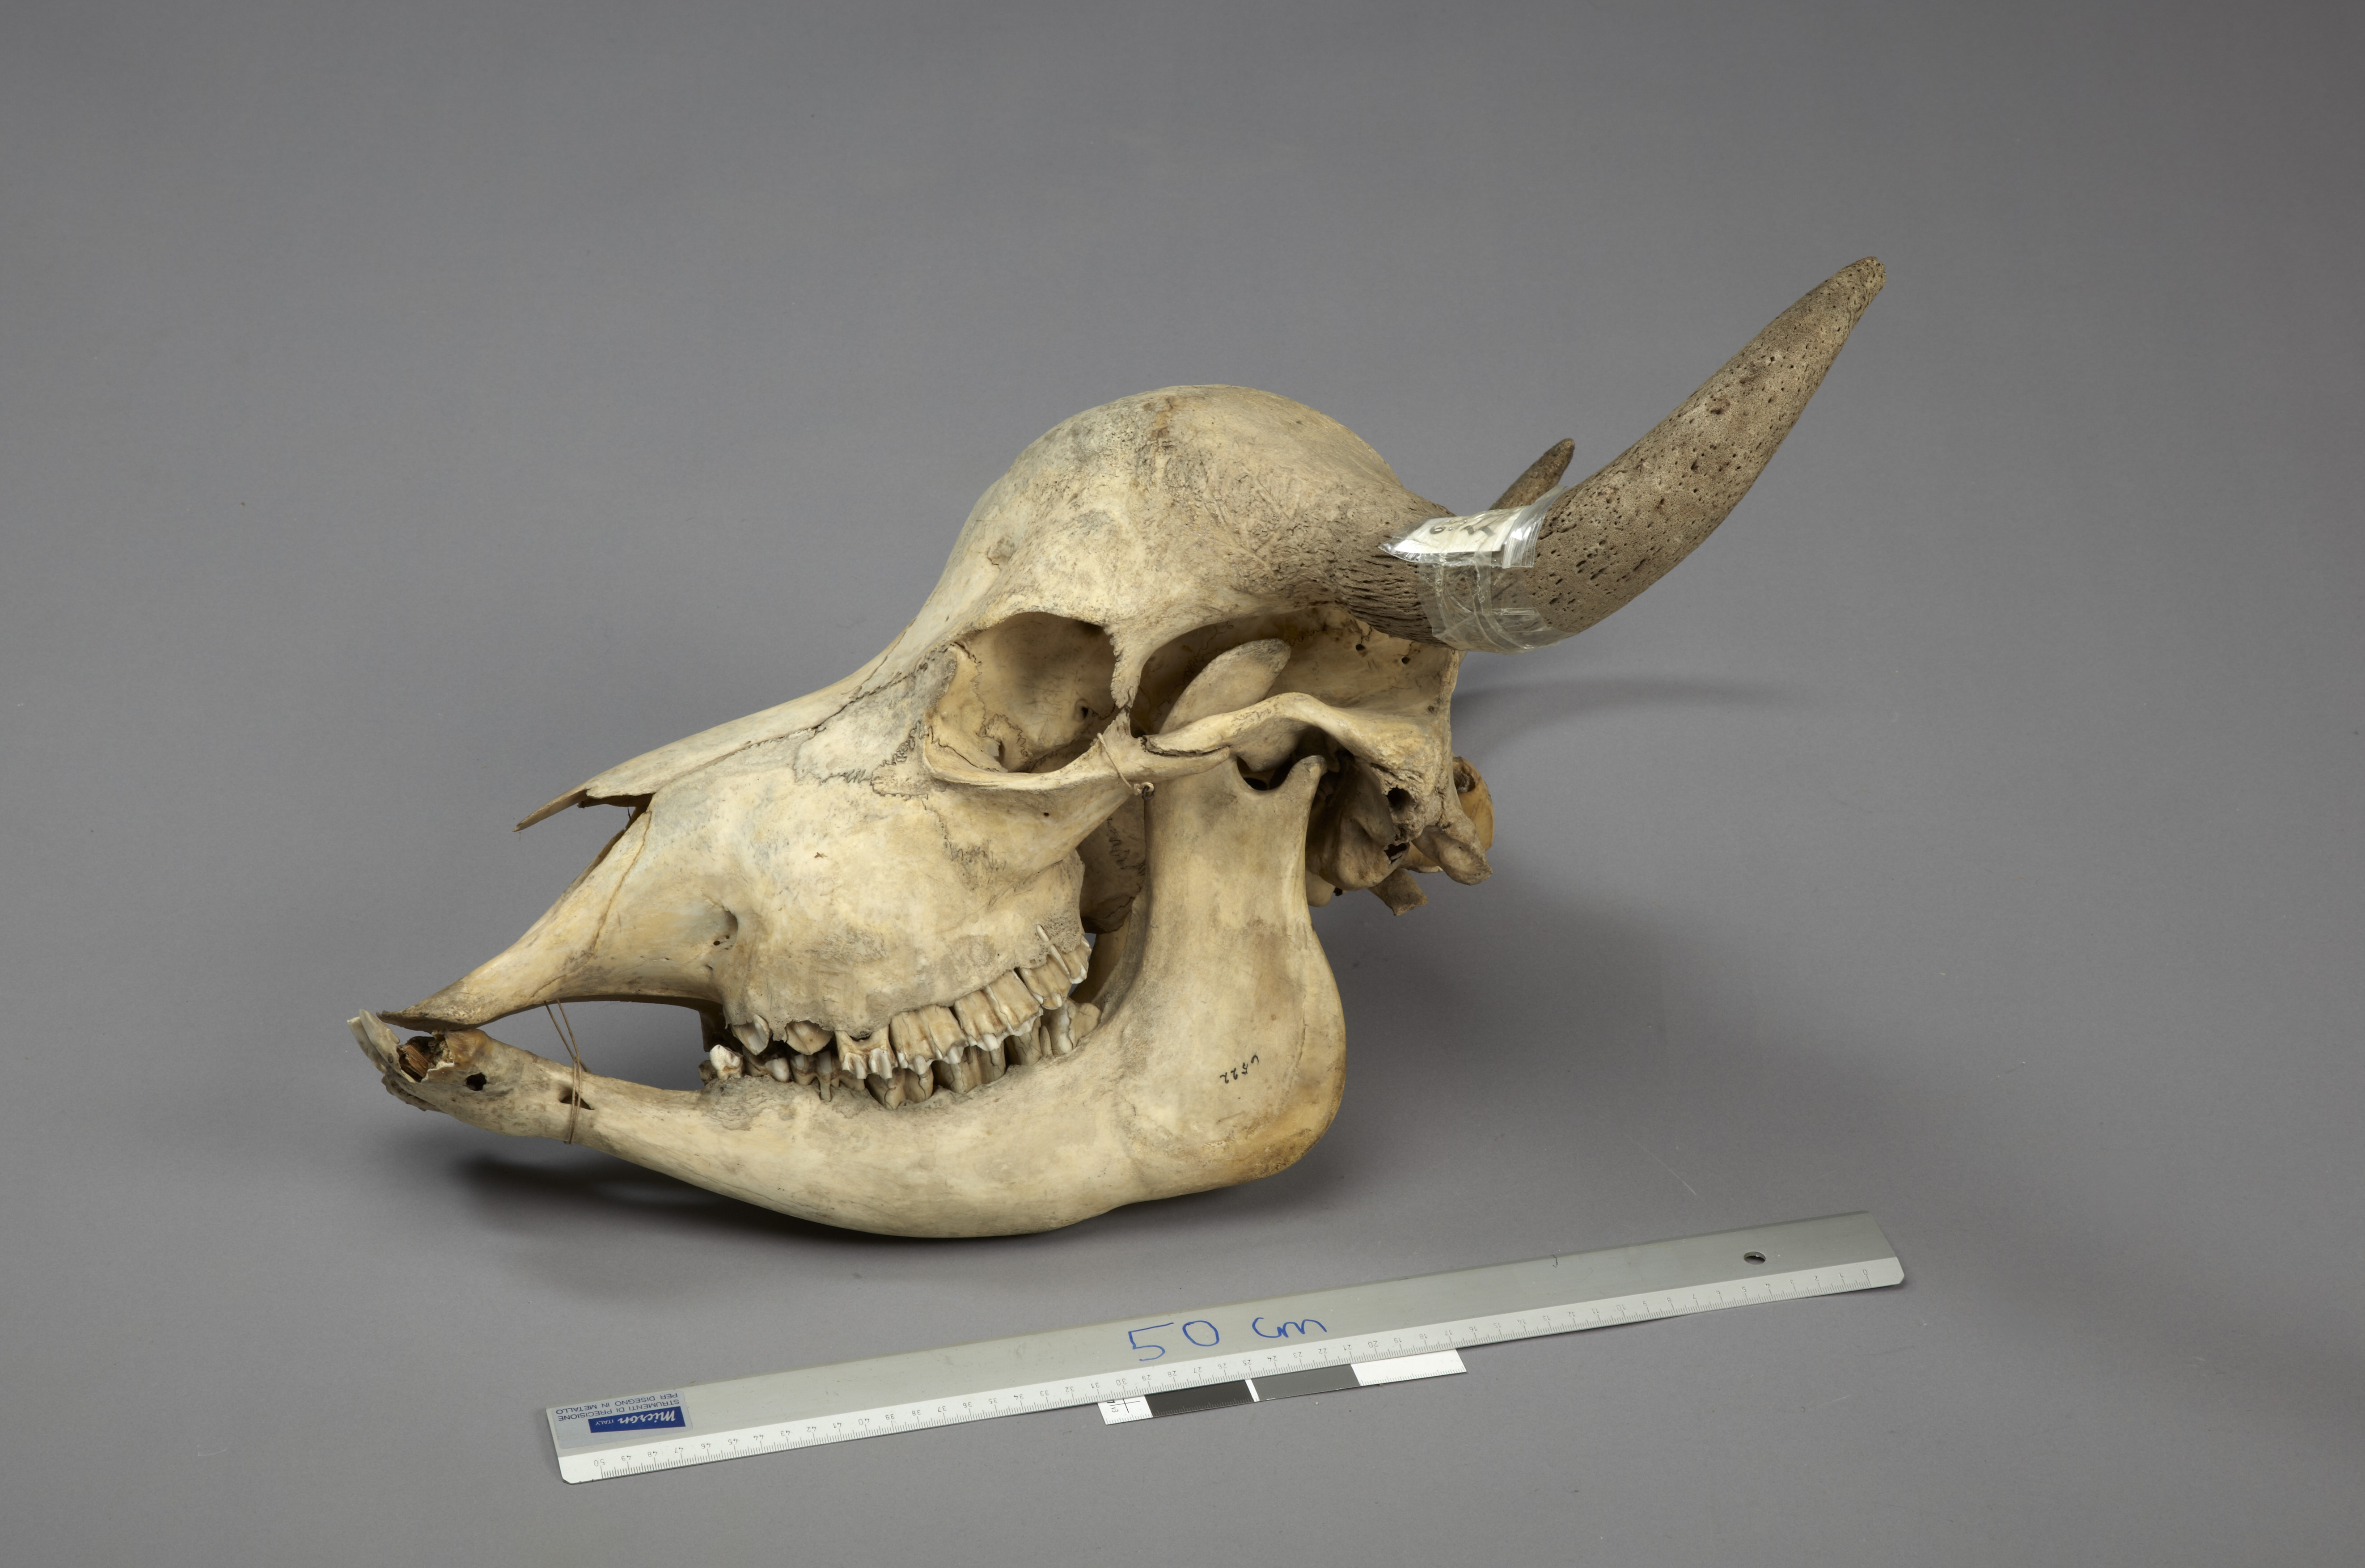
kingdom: Animalia
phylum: Chordata
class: Mammalia
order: Artiodactyla
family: Bovidae
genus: Syncerus
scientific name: Syncerus caffer
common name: African buffalo
